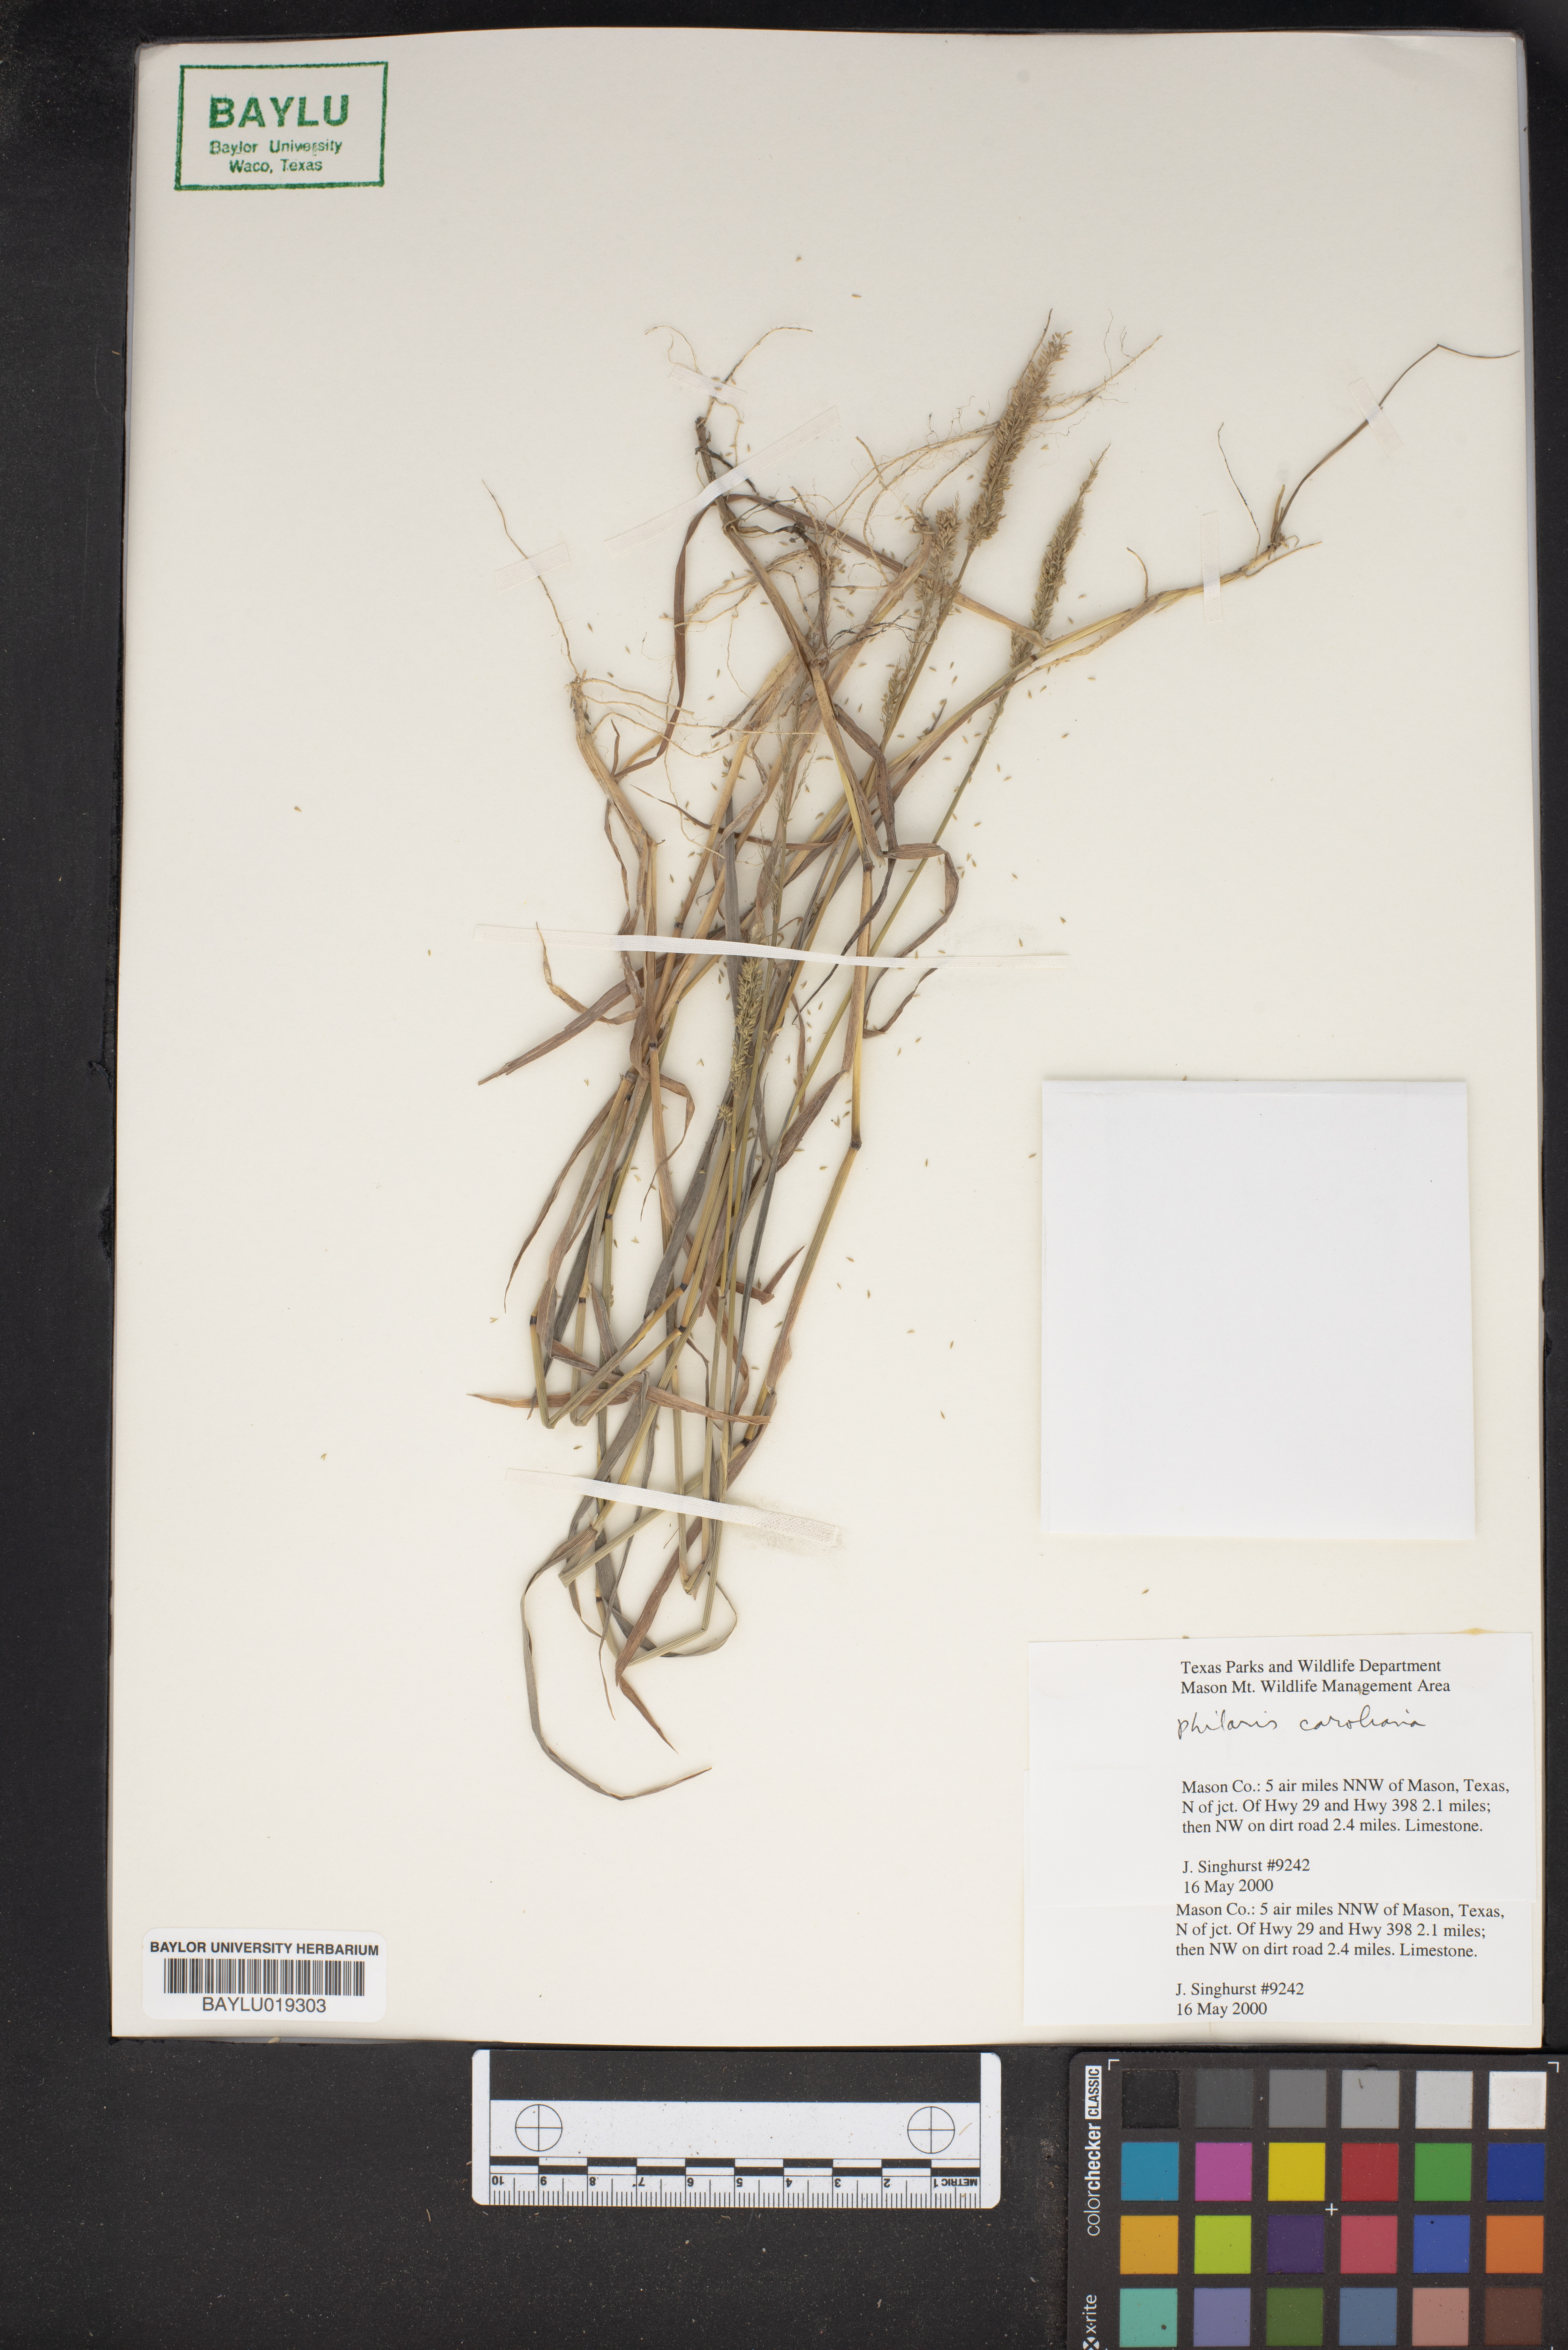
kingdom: Plantae
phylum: Tracheophyta
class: Liliopsida
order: Poales
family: Poaceae
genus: Phalaris
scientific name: Phalaris caroliniana
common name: May grass
